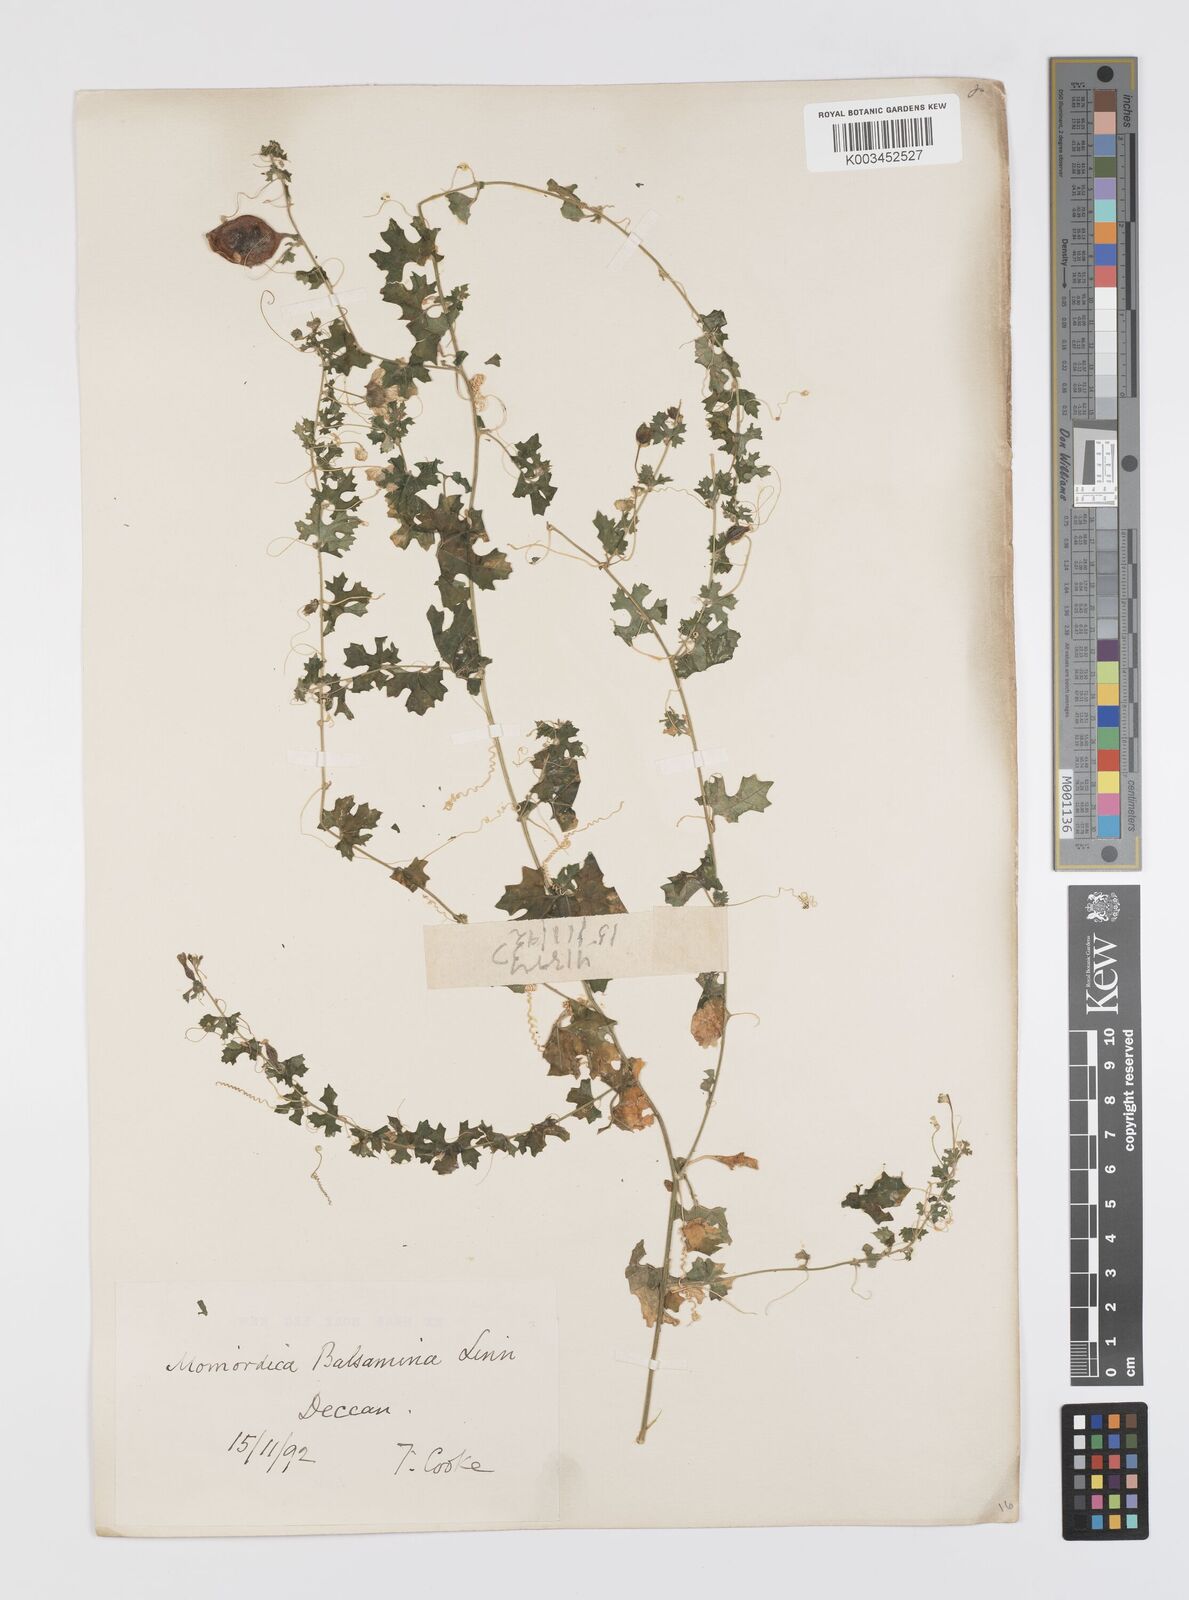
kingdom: Plantae
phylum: Tracheophyta
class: Magnoliopsida
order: Cucurbitales
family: Cucurbitaceae
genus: Momordica
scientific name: Momordica balsamina
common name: Southern balsampear
